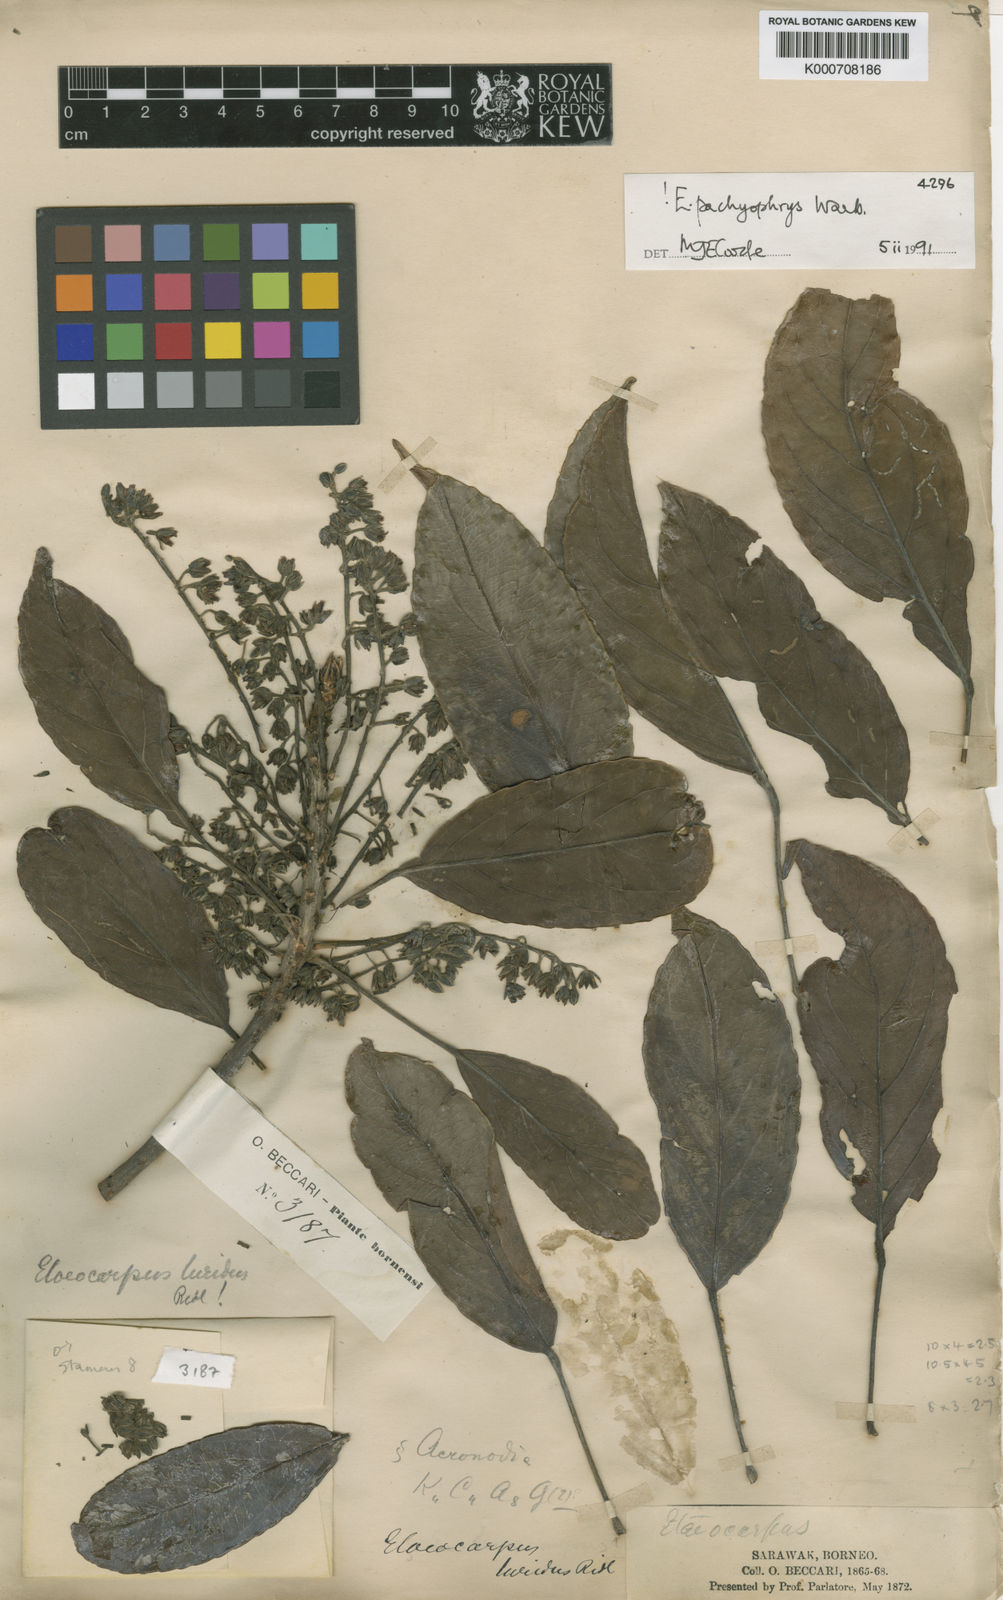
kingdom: Plantae
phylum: Tracheophyta
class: Magnoliopsida
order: Oxalidales
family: Elaeocarpaceae
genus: Elaeocarpus
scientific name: Elaeocarpus pachyophrys
